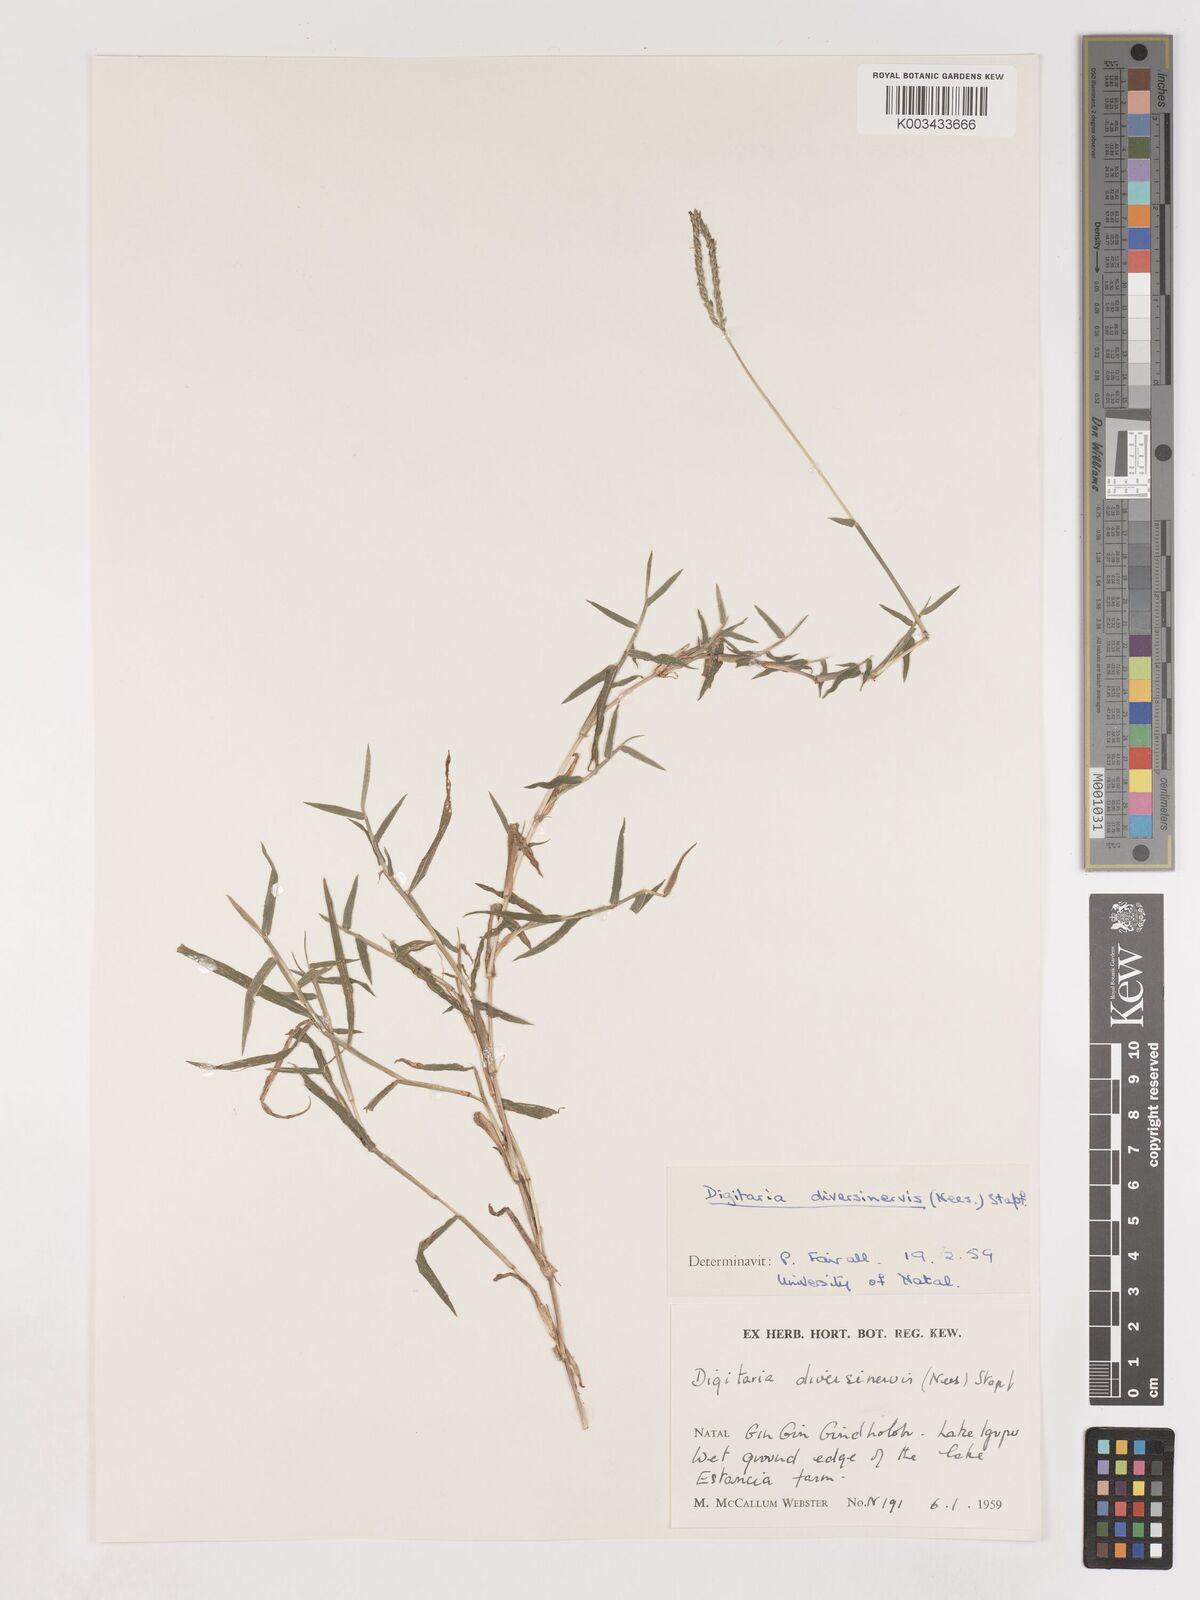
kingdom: Plantae
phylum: Tracheophyta
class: Liliopsida
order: Poales
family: Poaceae
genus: Digitaria
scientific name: Digitaria diversinervis
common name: Richmond finger grass
